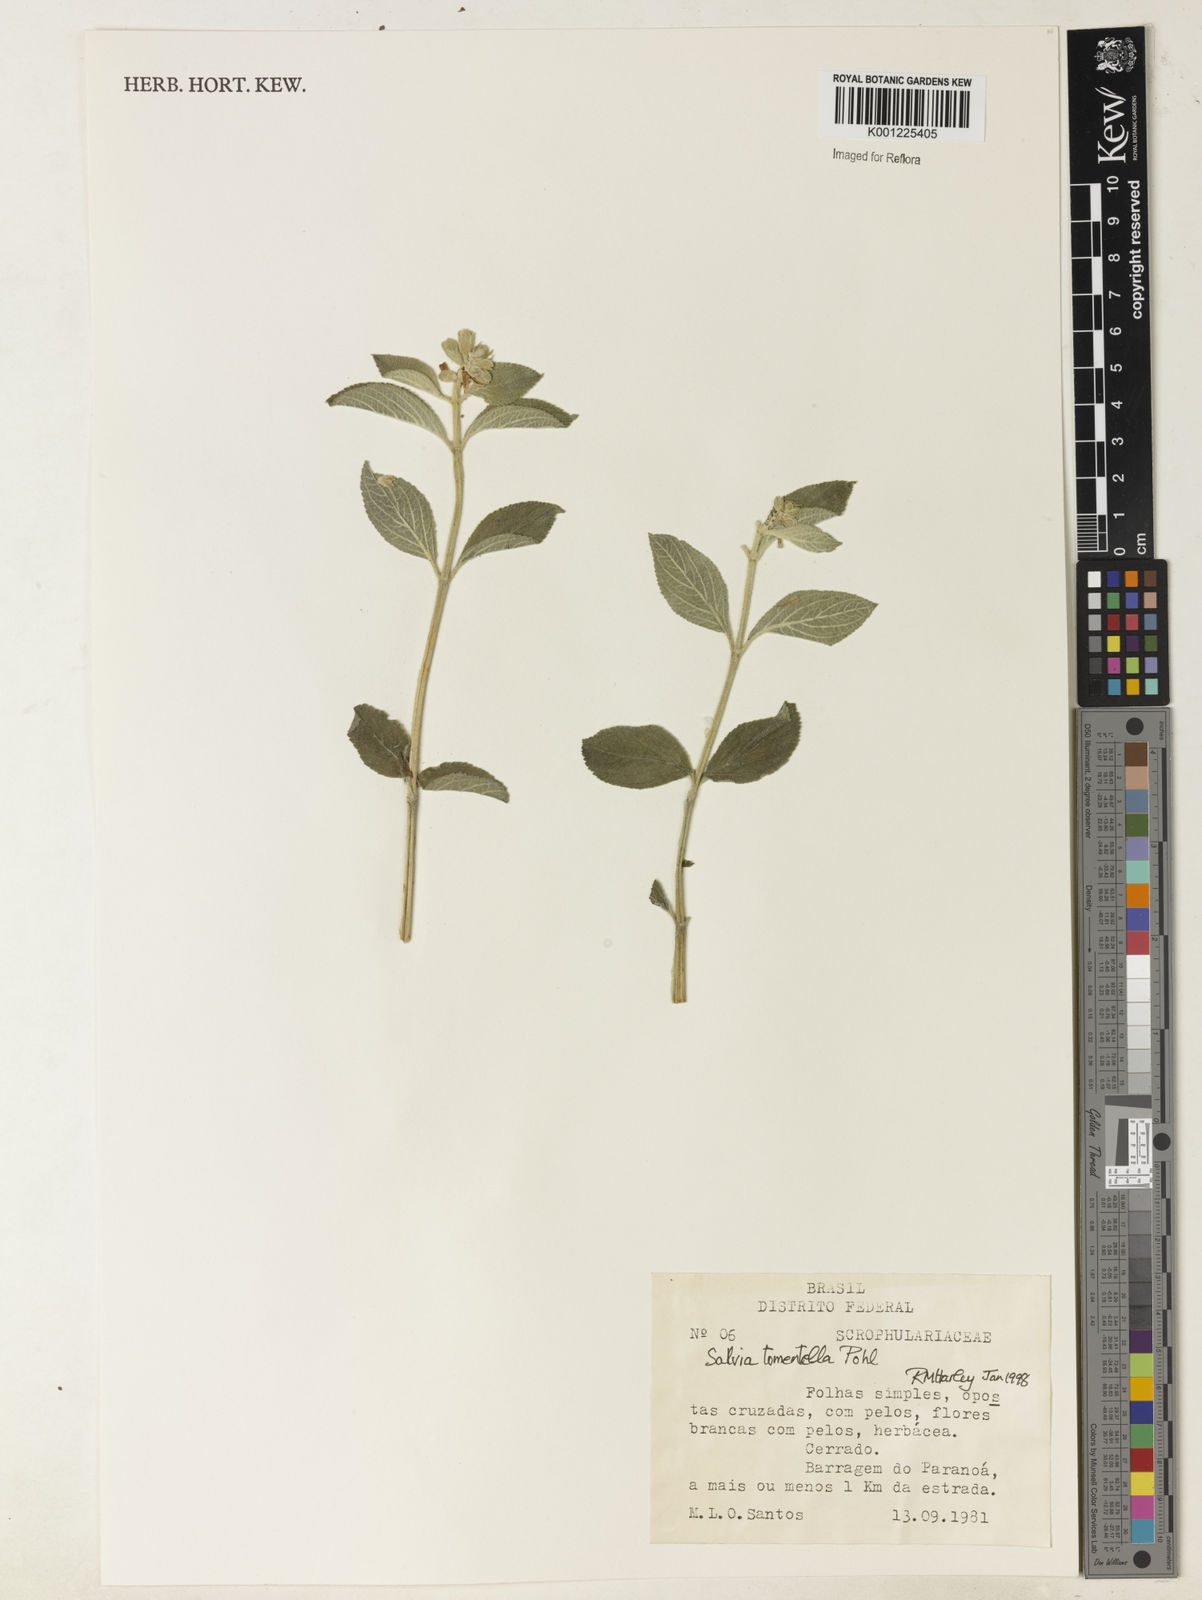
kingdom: Plantae
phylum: Tracheophyta
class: Magnoliopsida
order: Lamiales
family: Lamiaceae
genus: Salvia
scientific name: Salvia tomentella
